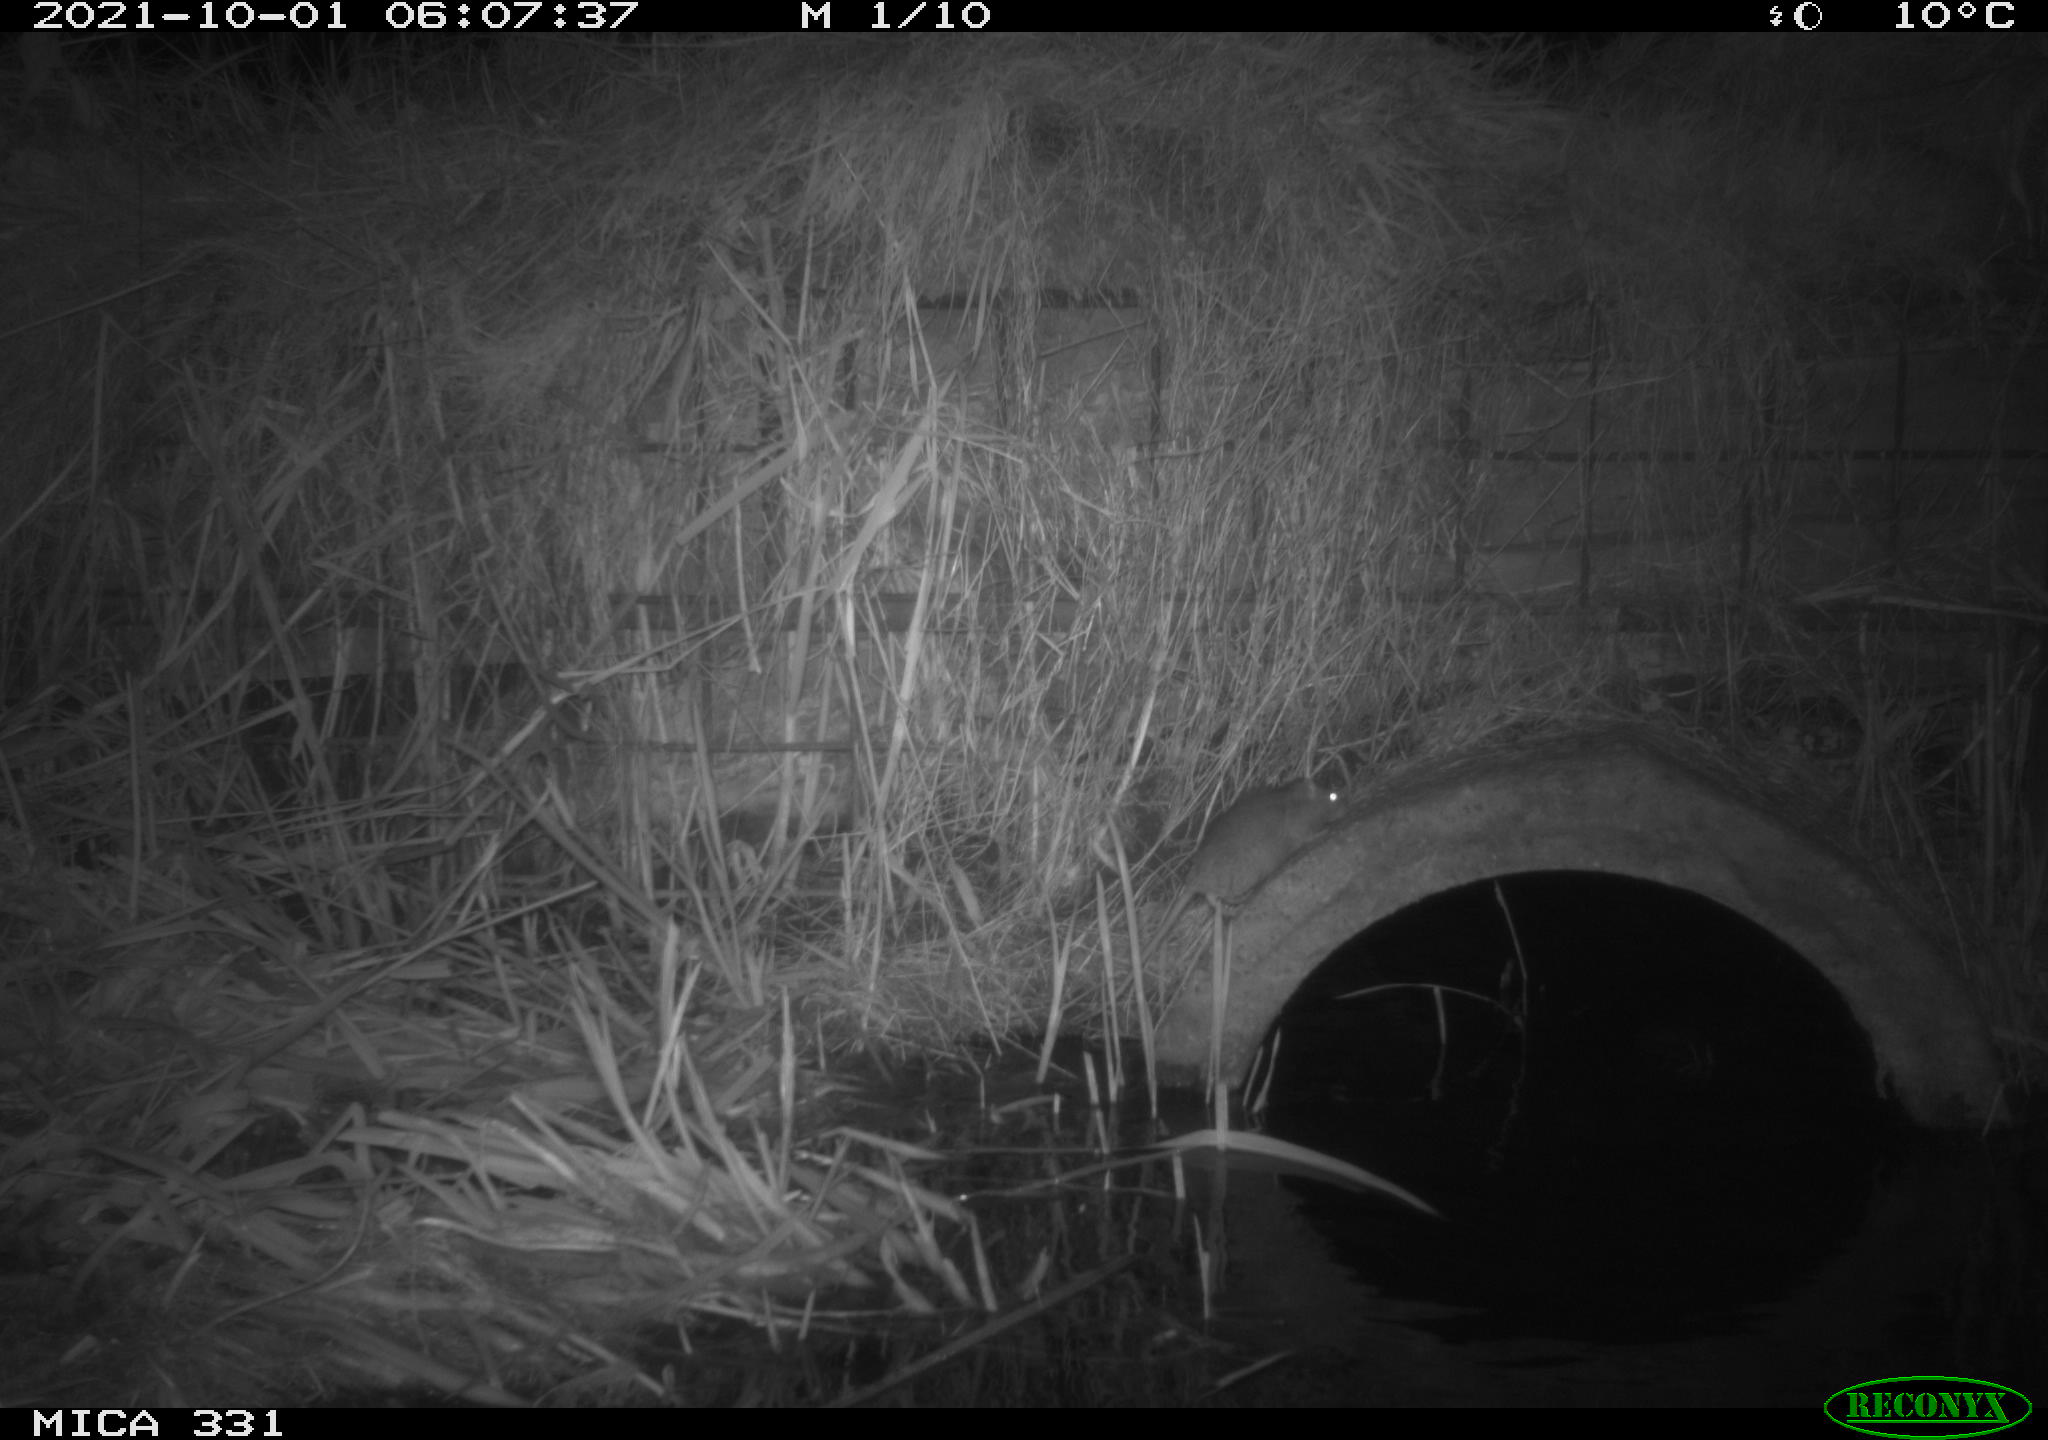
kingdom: Animalia
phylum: Chordata
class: Mammalia
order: Rodentia
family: Muridae
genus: Rattus
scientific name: Rattus norvegicus
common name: Brown rat
